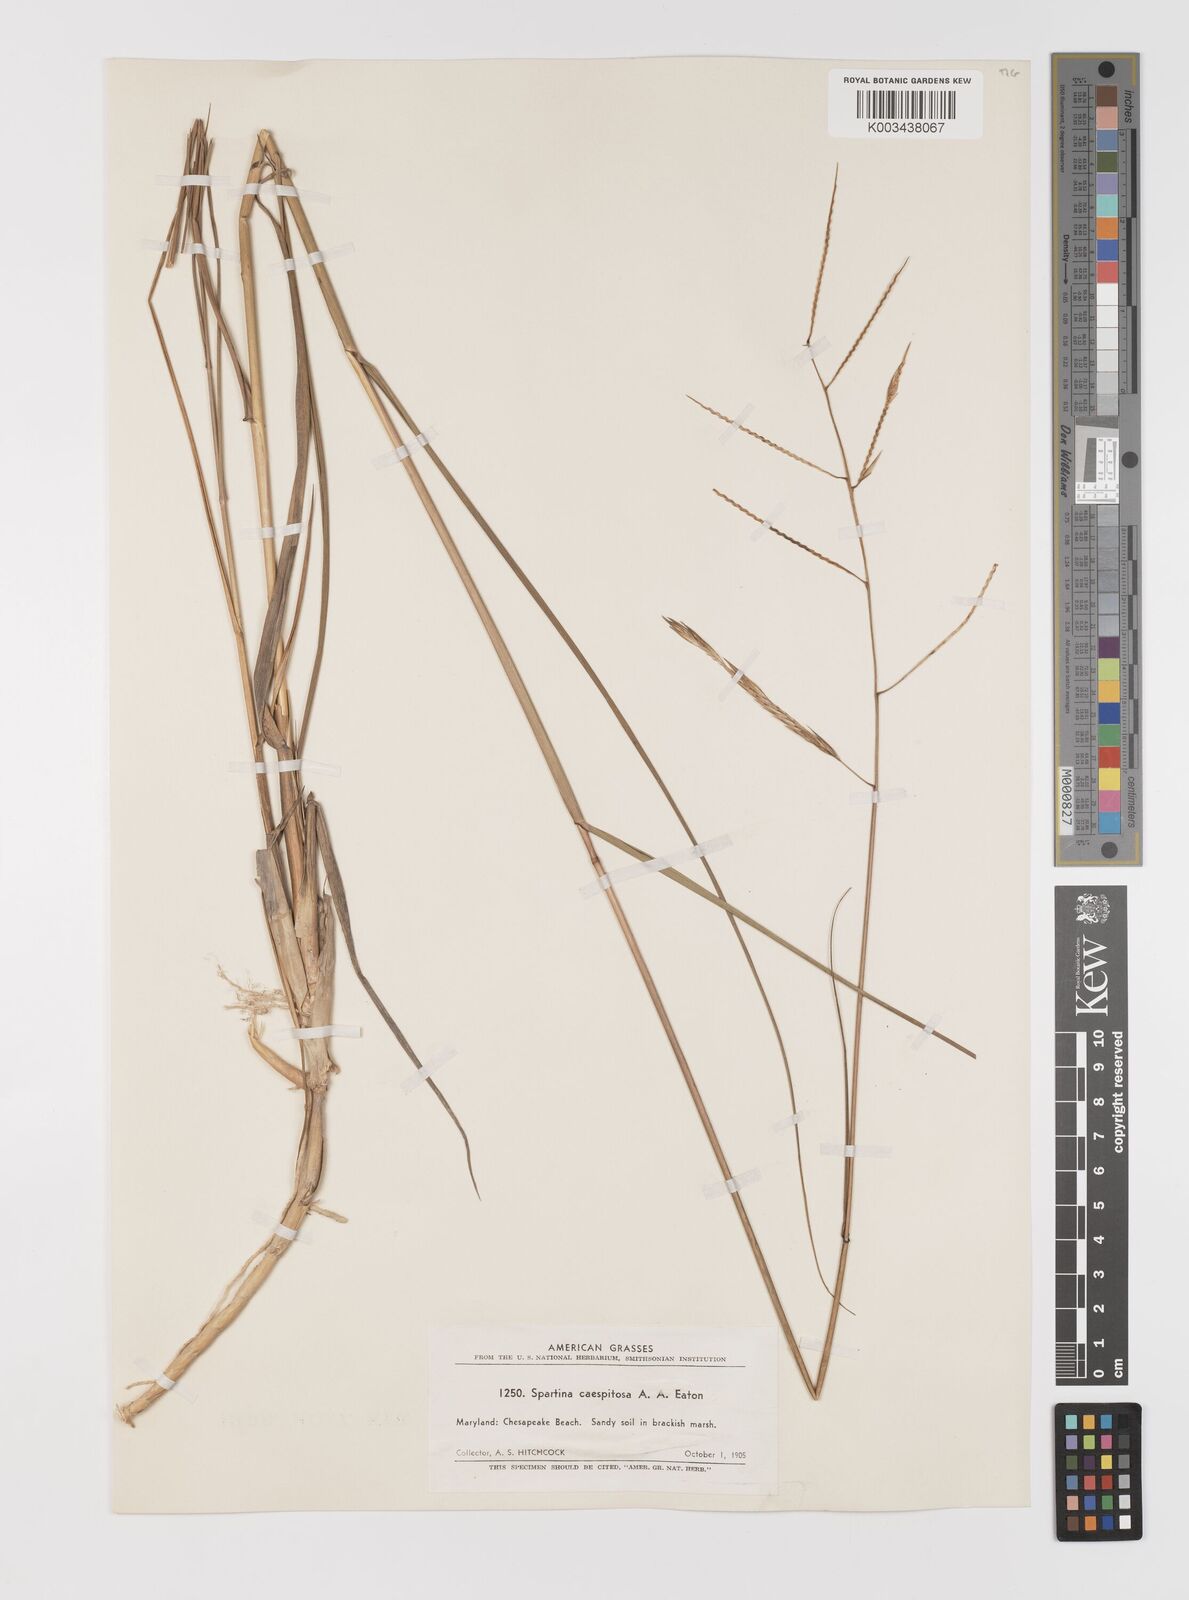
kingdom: Plantae
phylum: Tracheophyta
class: Liliopsida
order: Poales
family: Poaceae
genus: Sporobolus
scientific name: Sporobolus eatonianus
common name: Mixed cordgrass
